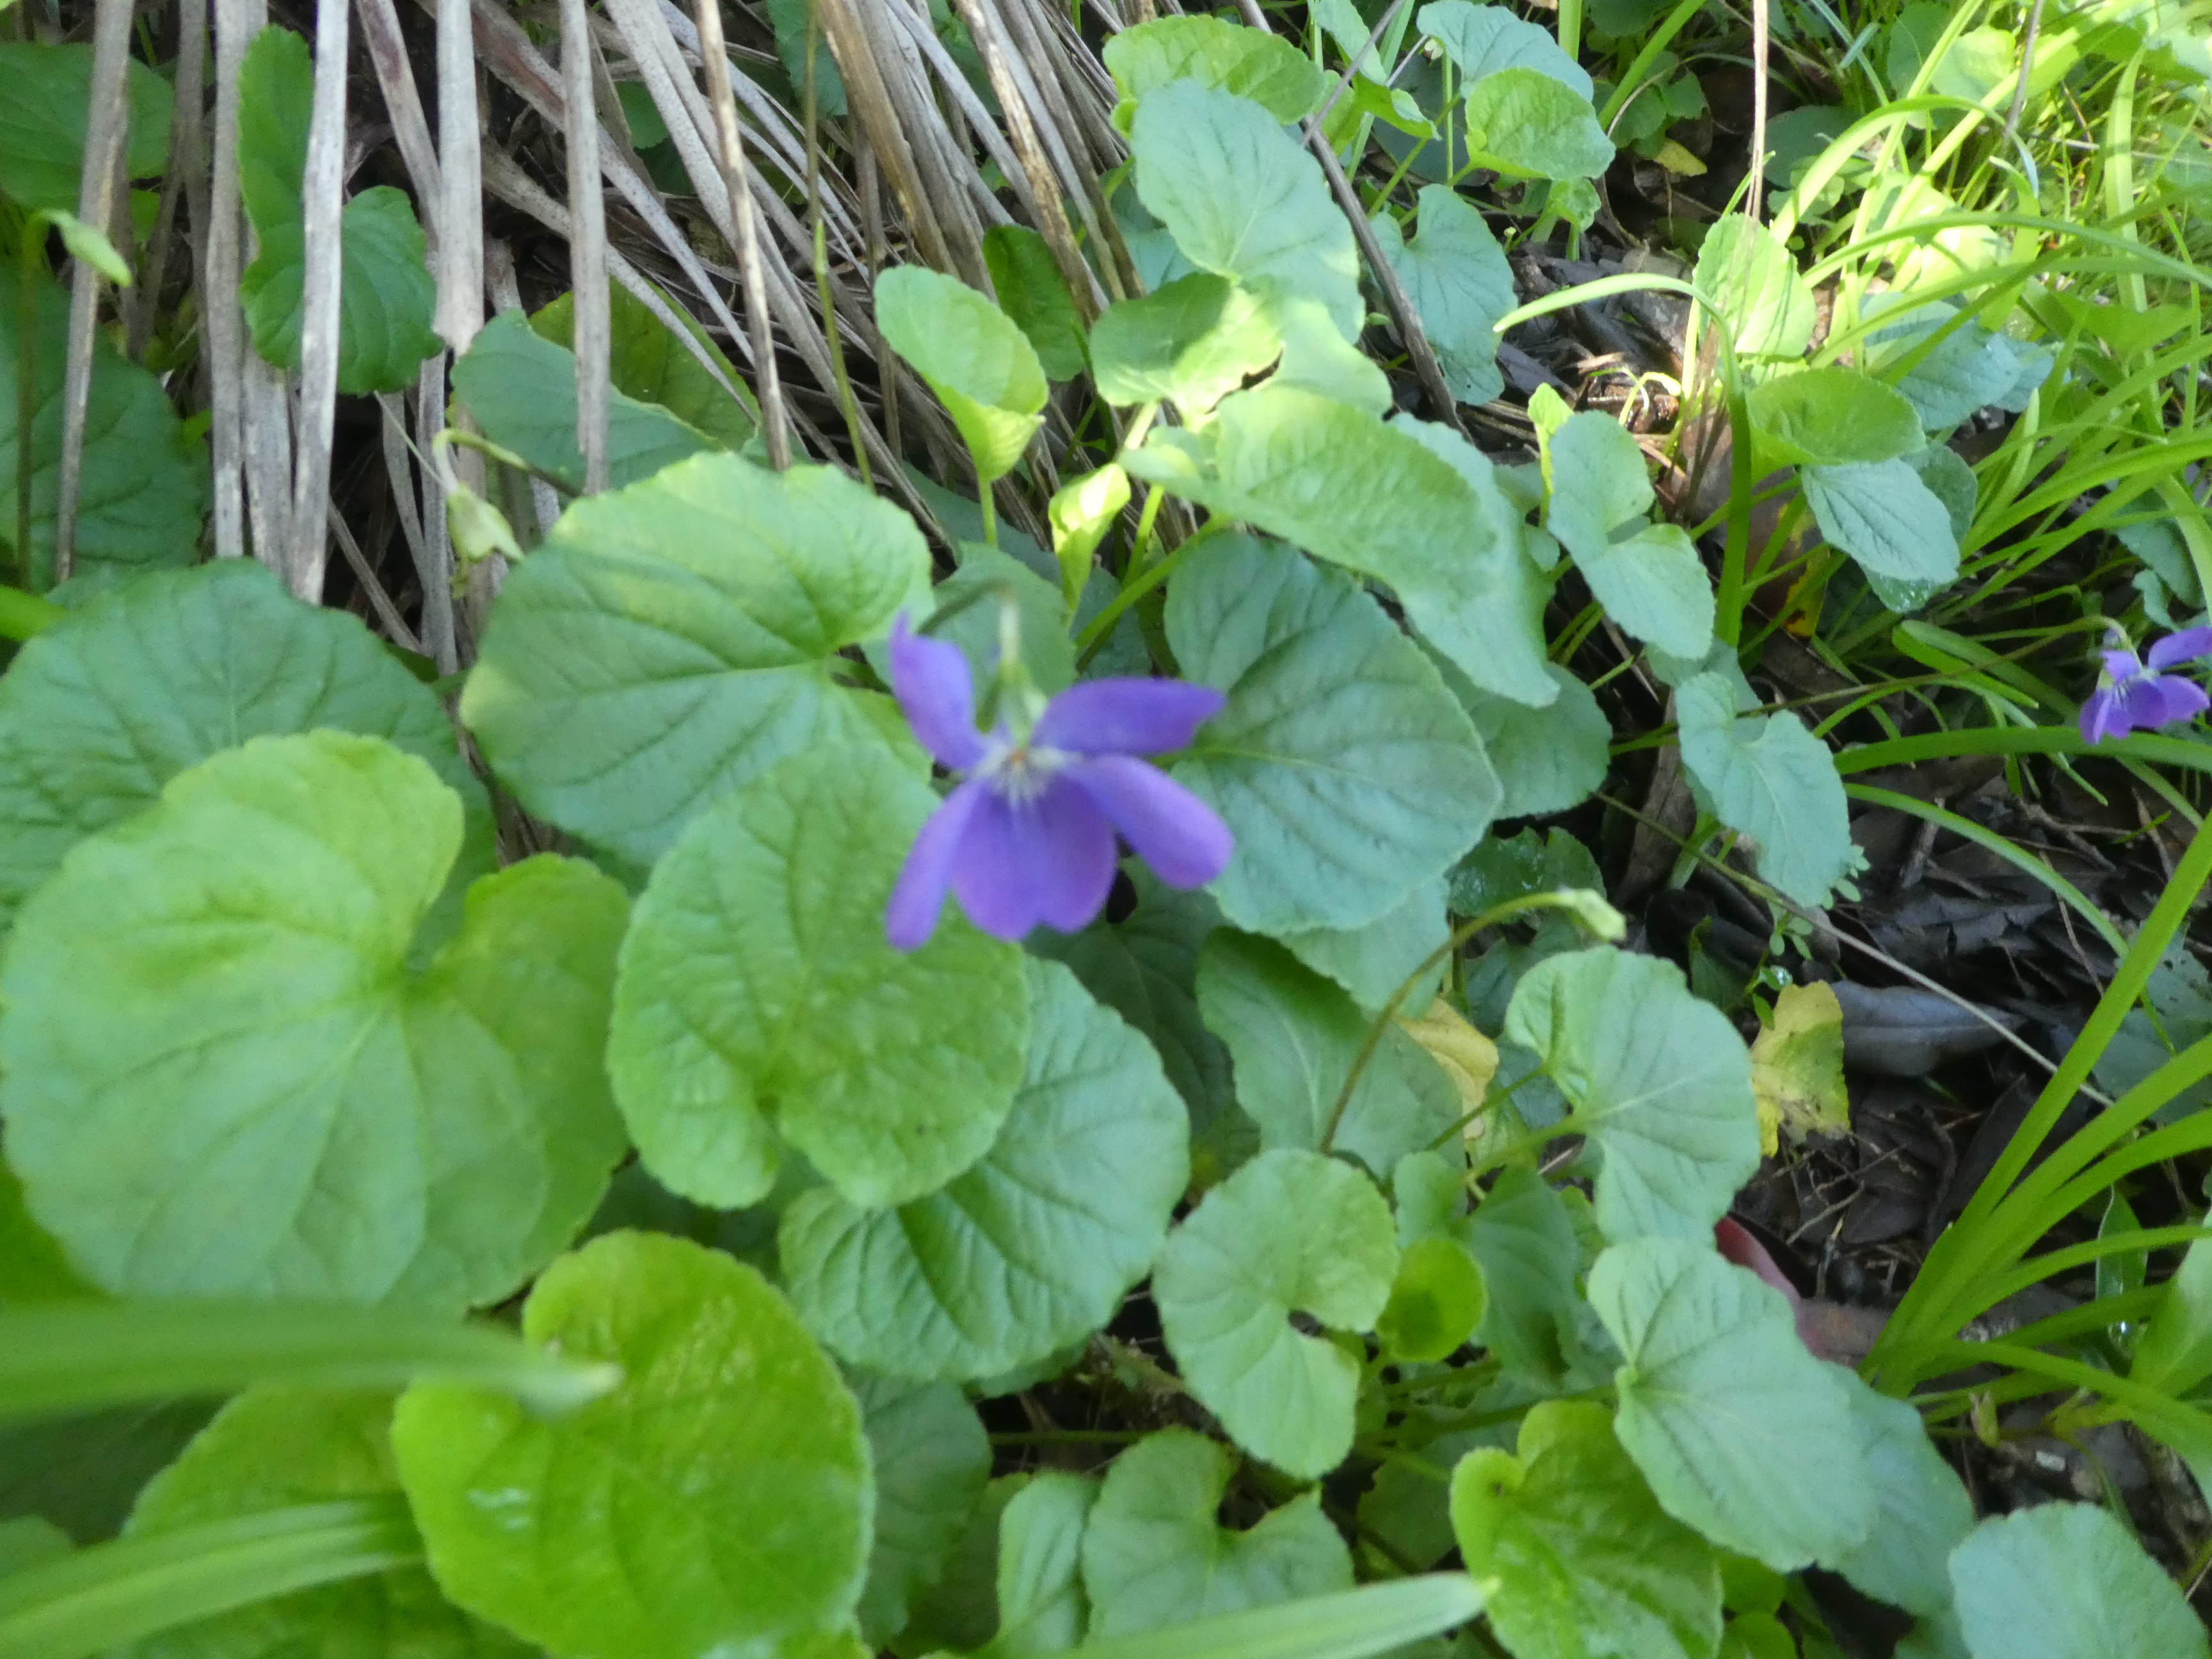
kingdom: Plantae
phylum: Tracheophyta
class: Magnoliopsida
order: Malpighiales
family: Violaceae
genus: Viola
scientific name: Viola odorata
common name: Sweet violet
